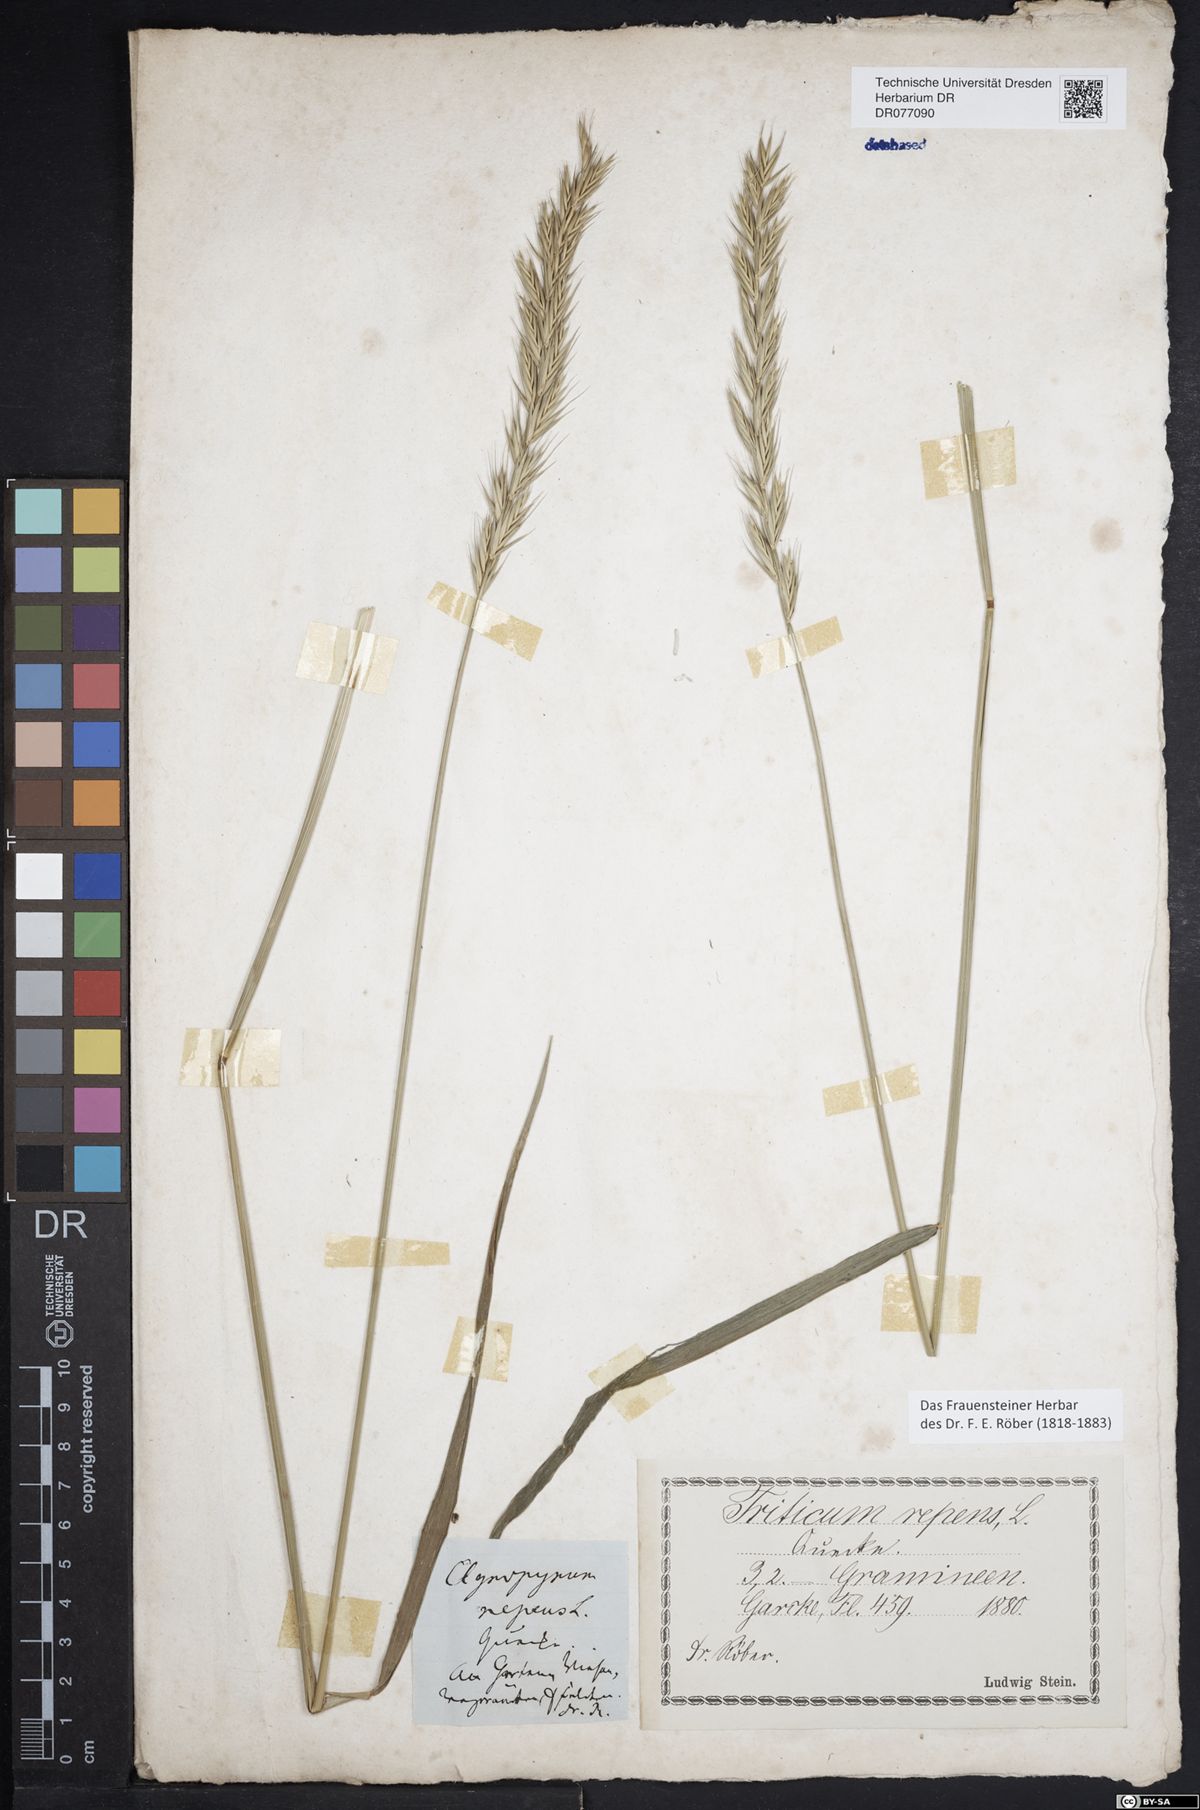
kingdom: Plantae
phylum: Tracheophyta
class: Liliopsida
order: Poales
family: Poaceae
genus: Elymus
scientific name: Elymus repens
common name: Quackgrass
